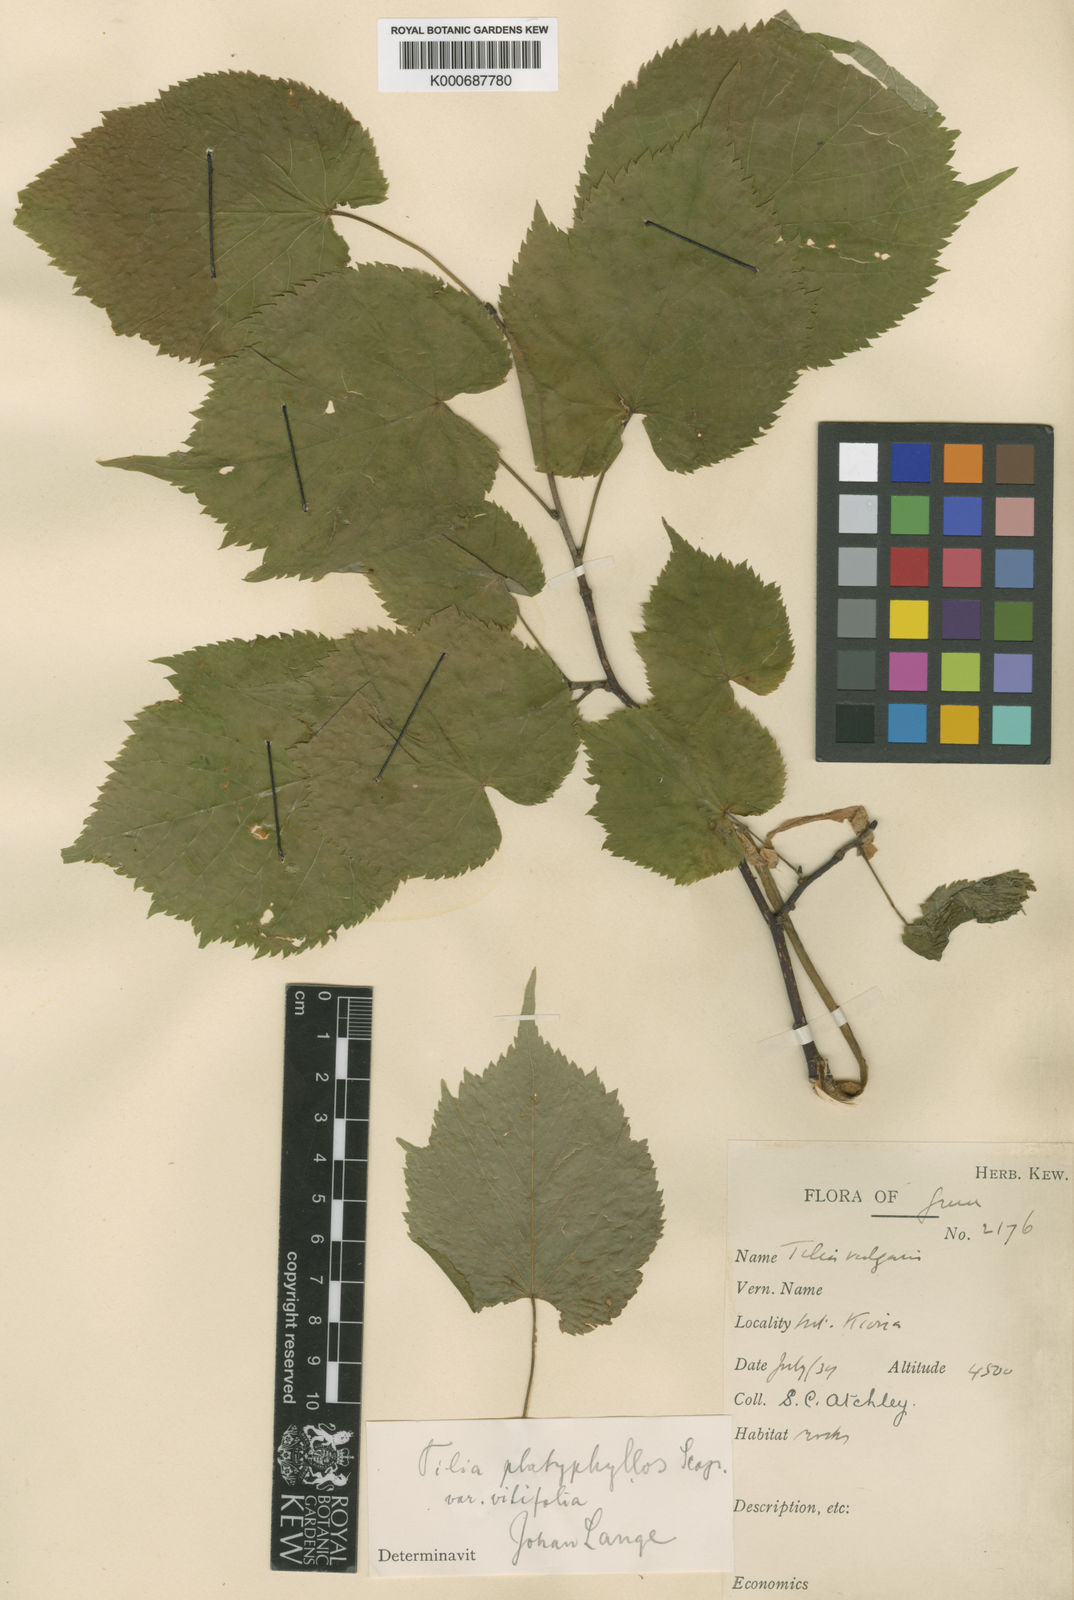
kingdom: Plantae
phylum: Tracheophyta
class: Magnoliopsida
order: Malvales
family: Malvaceae
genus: Tilia
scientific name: Tilia platyphyllos
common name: Large-leaved lime
